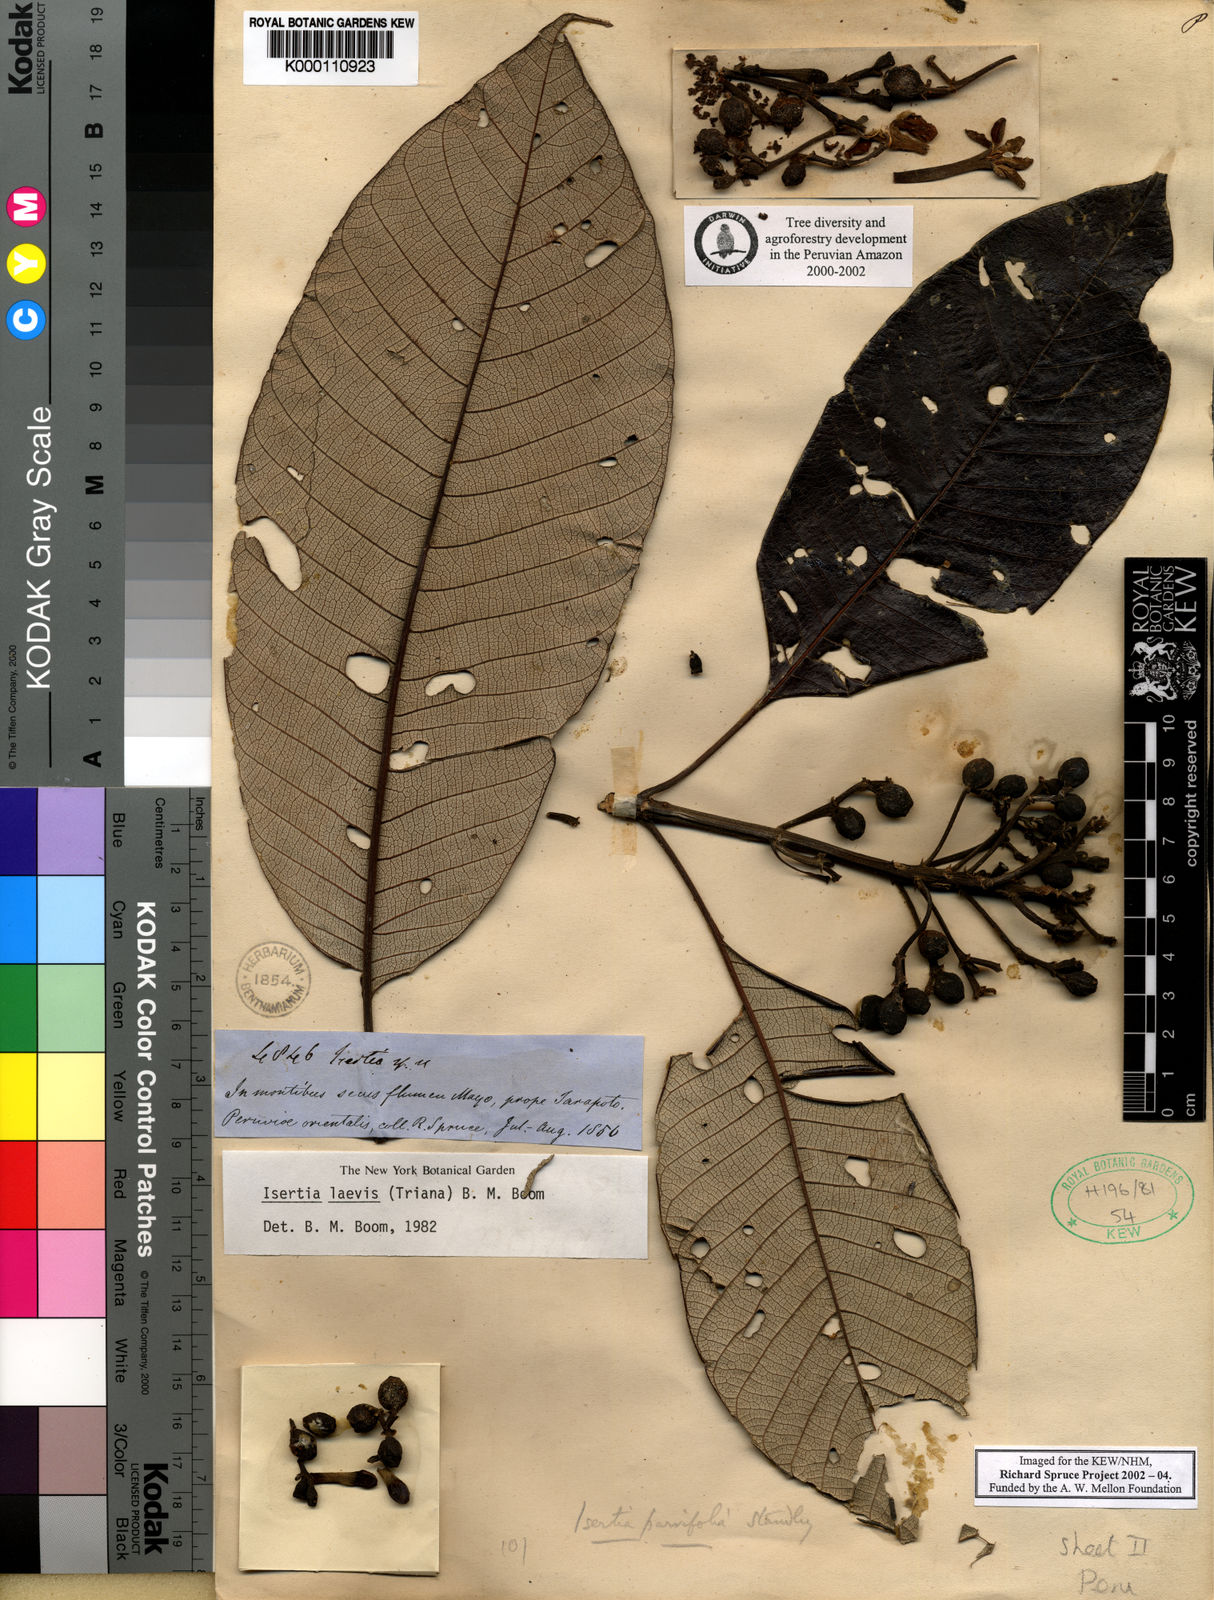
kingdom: Plantae
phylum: Tracheophyta
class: Magnoliopsida
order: Gentianales
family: Rubiaceae
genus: Isertia
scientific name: Isertia laevis
